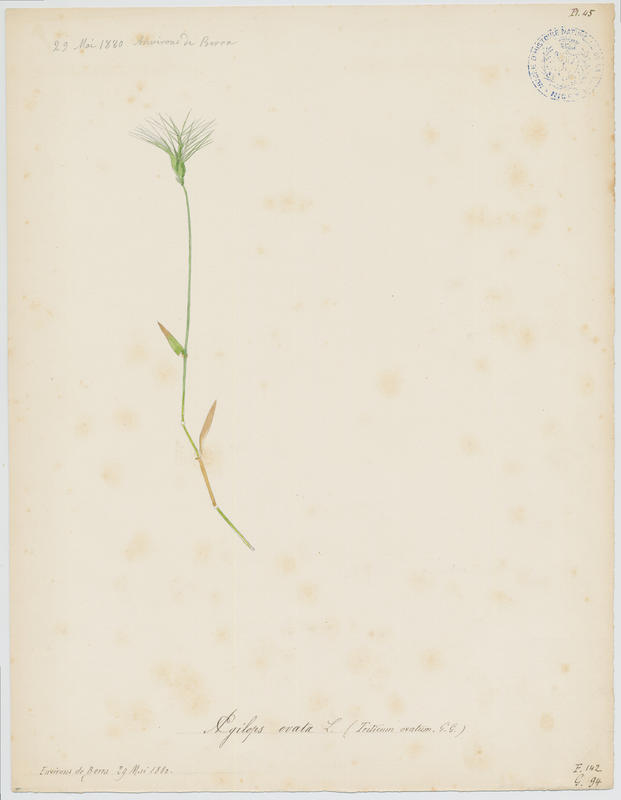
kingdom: Plantae
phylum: Tracheophyta
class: Liliopsida
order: Poales
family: Poaceae
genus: Aegilops
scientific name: Aegilops neglecta
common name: Three-awn goat grass
